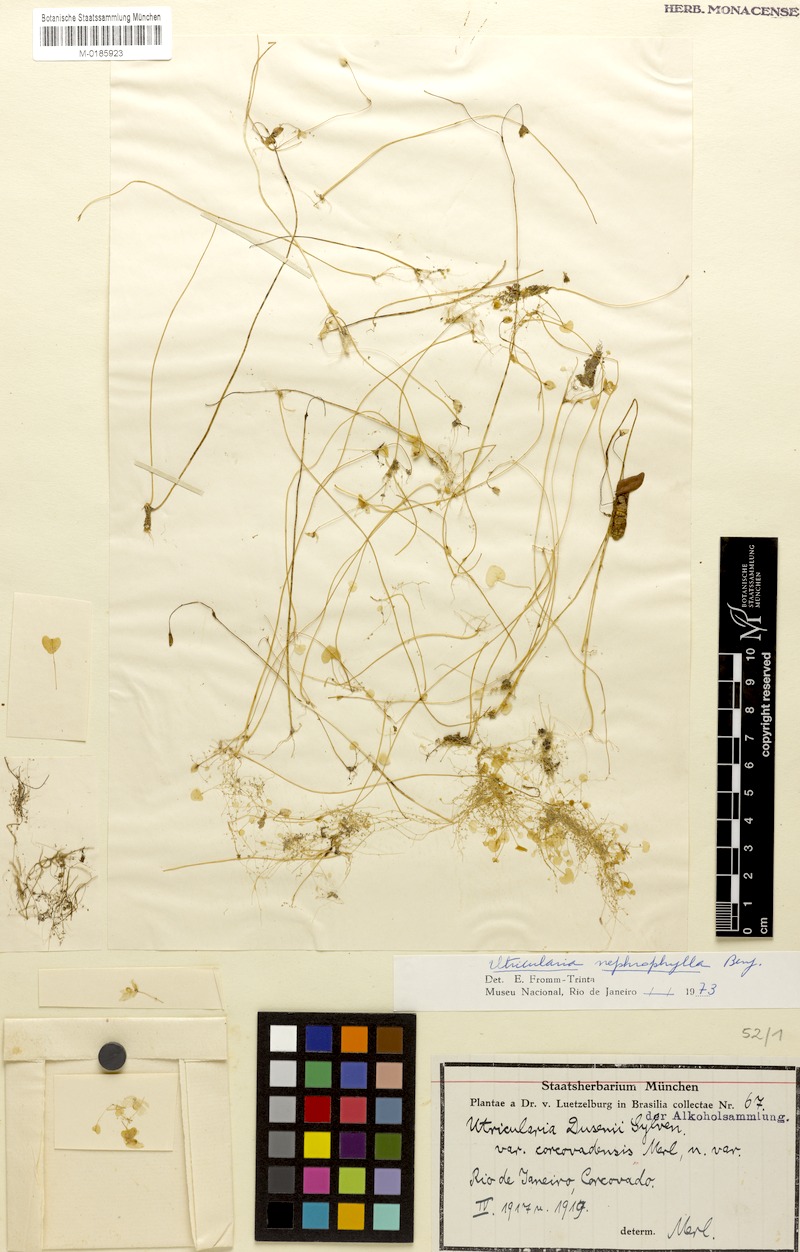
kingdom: Plantae
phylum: Tracheophyta
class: Magnoliopsida
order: Lamiales
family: Lentibulariaceae
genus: Utricularia
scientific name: Utricularia nephrophylla
